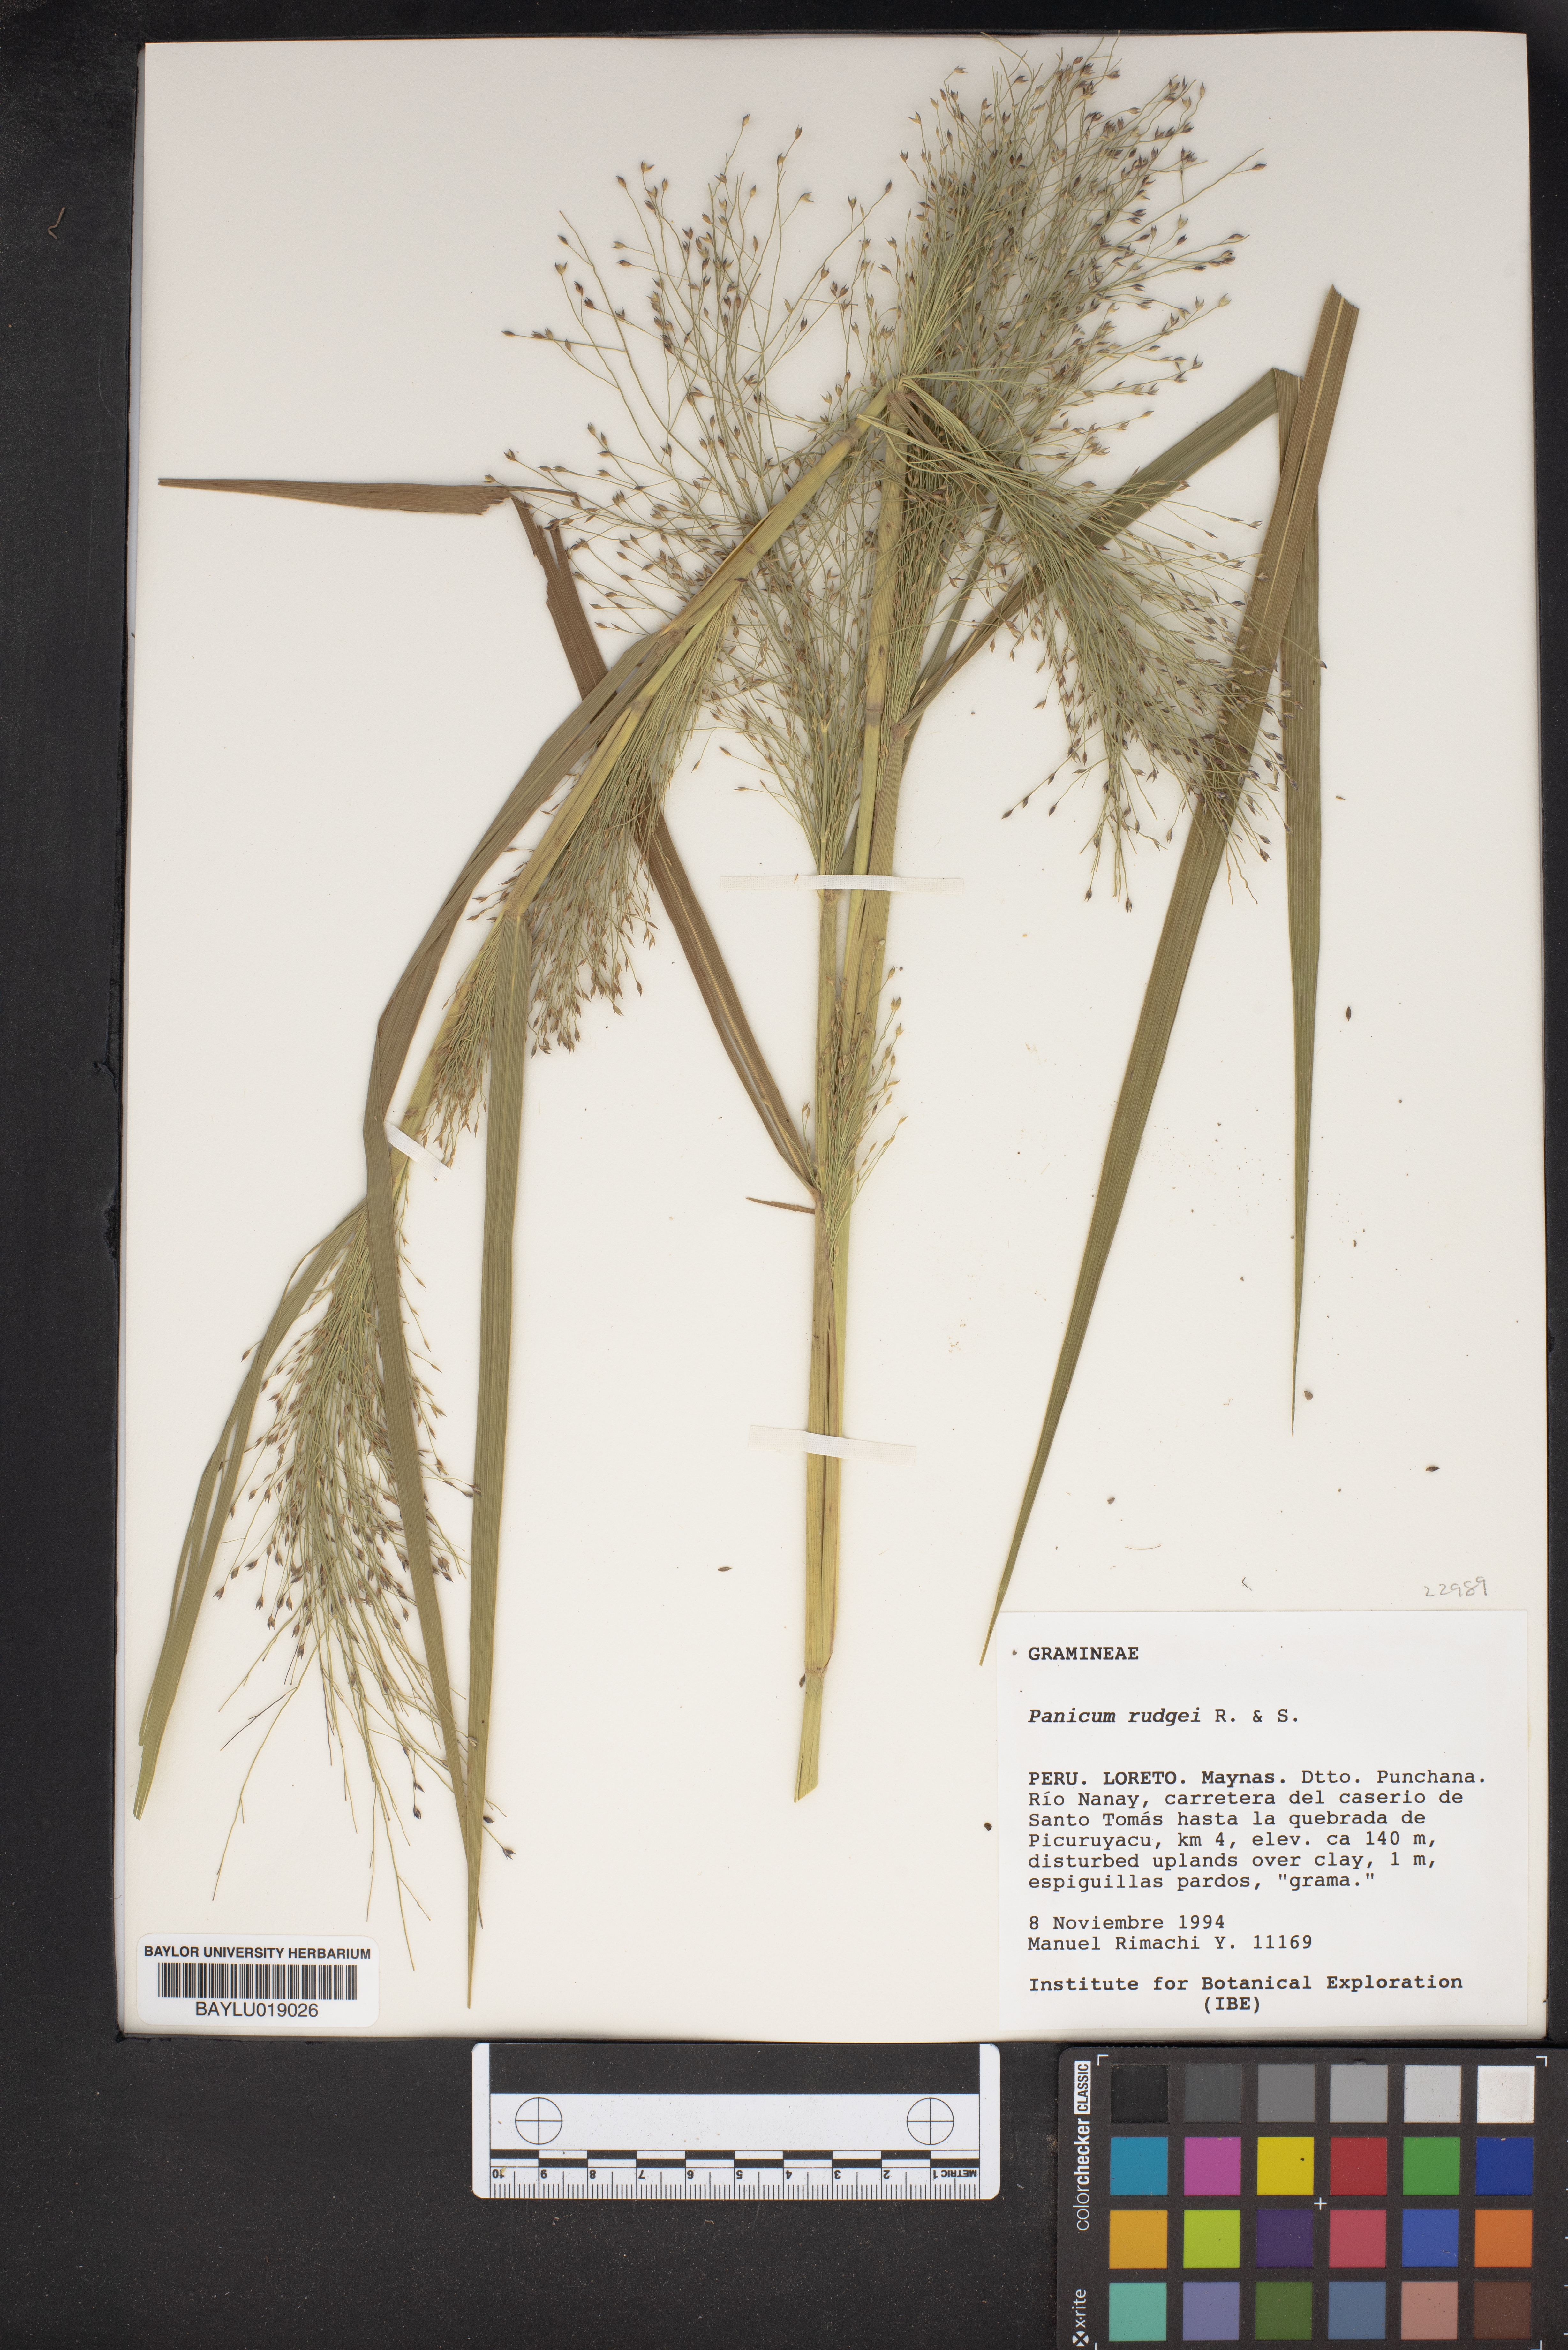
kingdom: Plantae
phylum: Tracheophyta
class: Liliopsida
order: Poales
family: Poaceae
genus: Panicum
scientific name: Panicum rudgei
